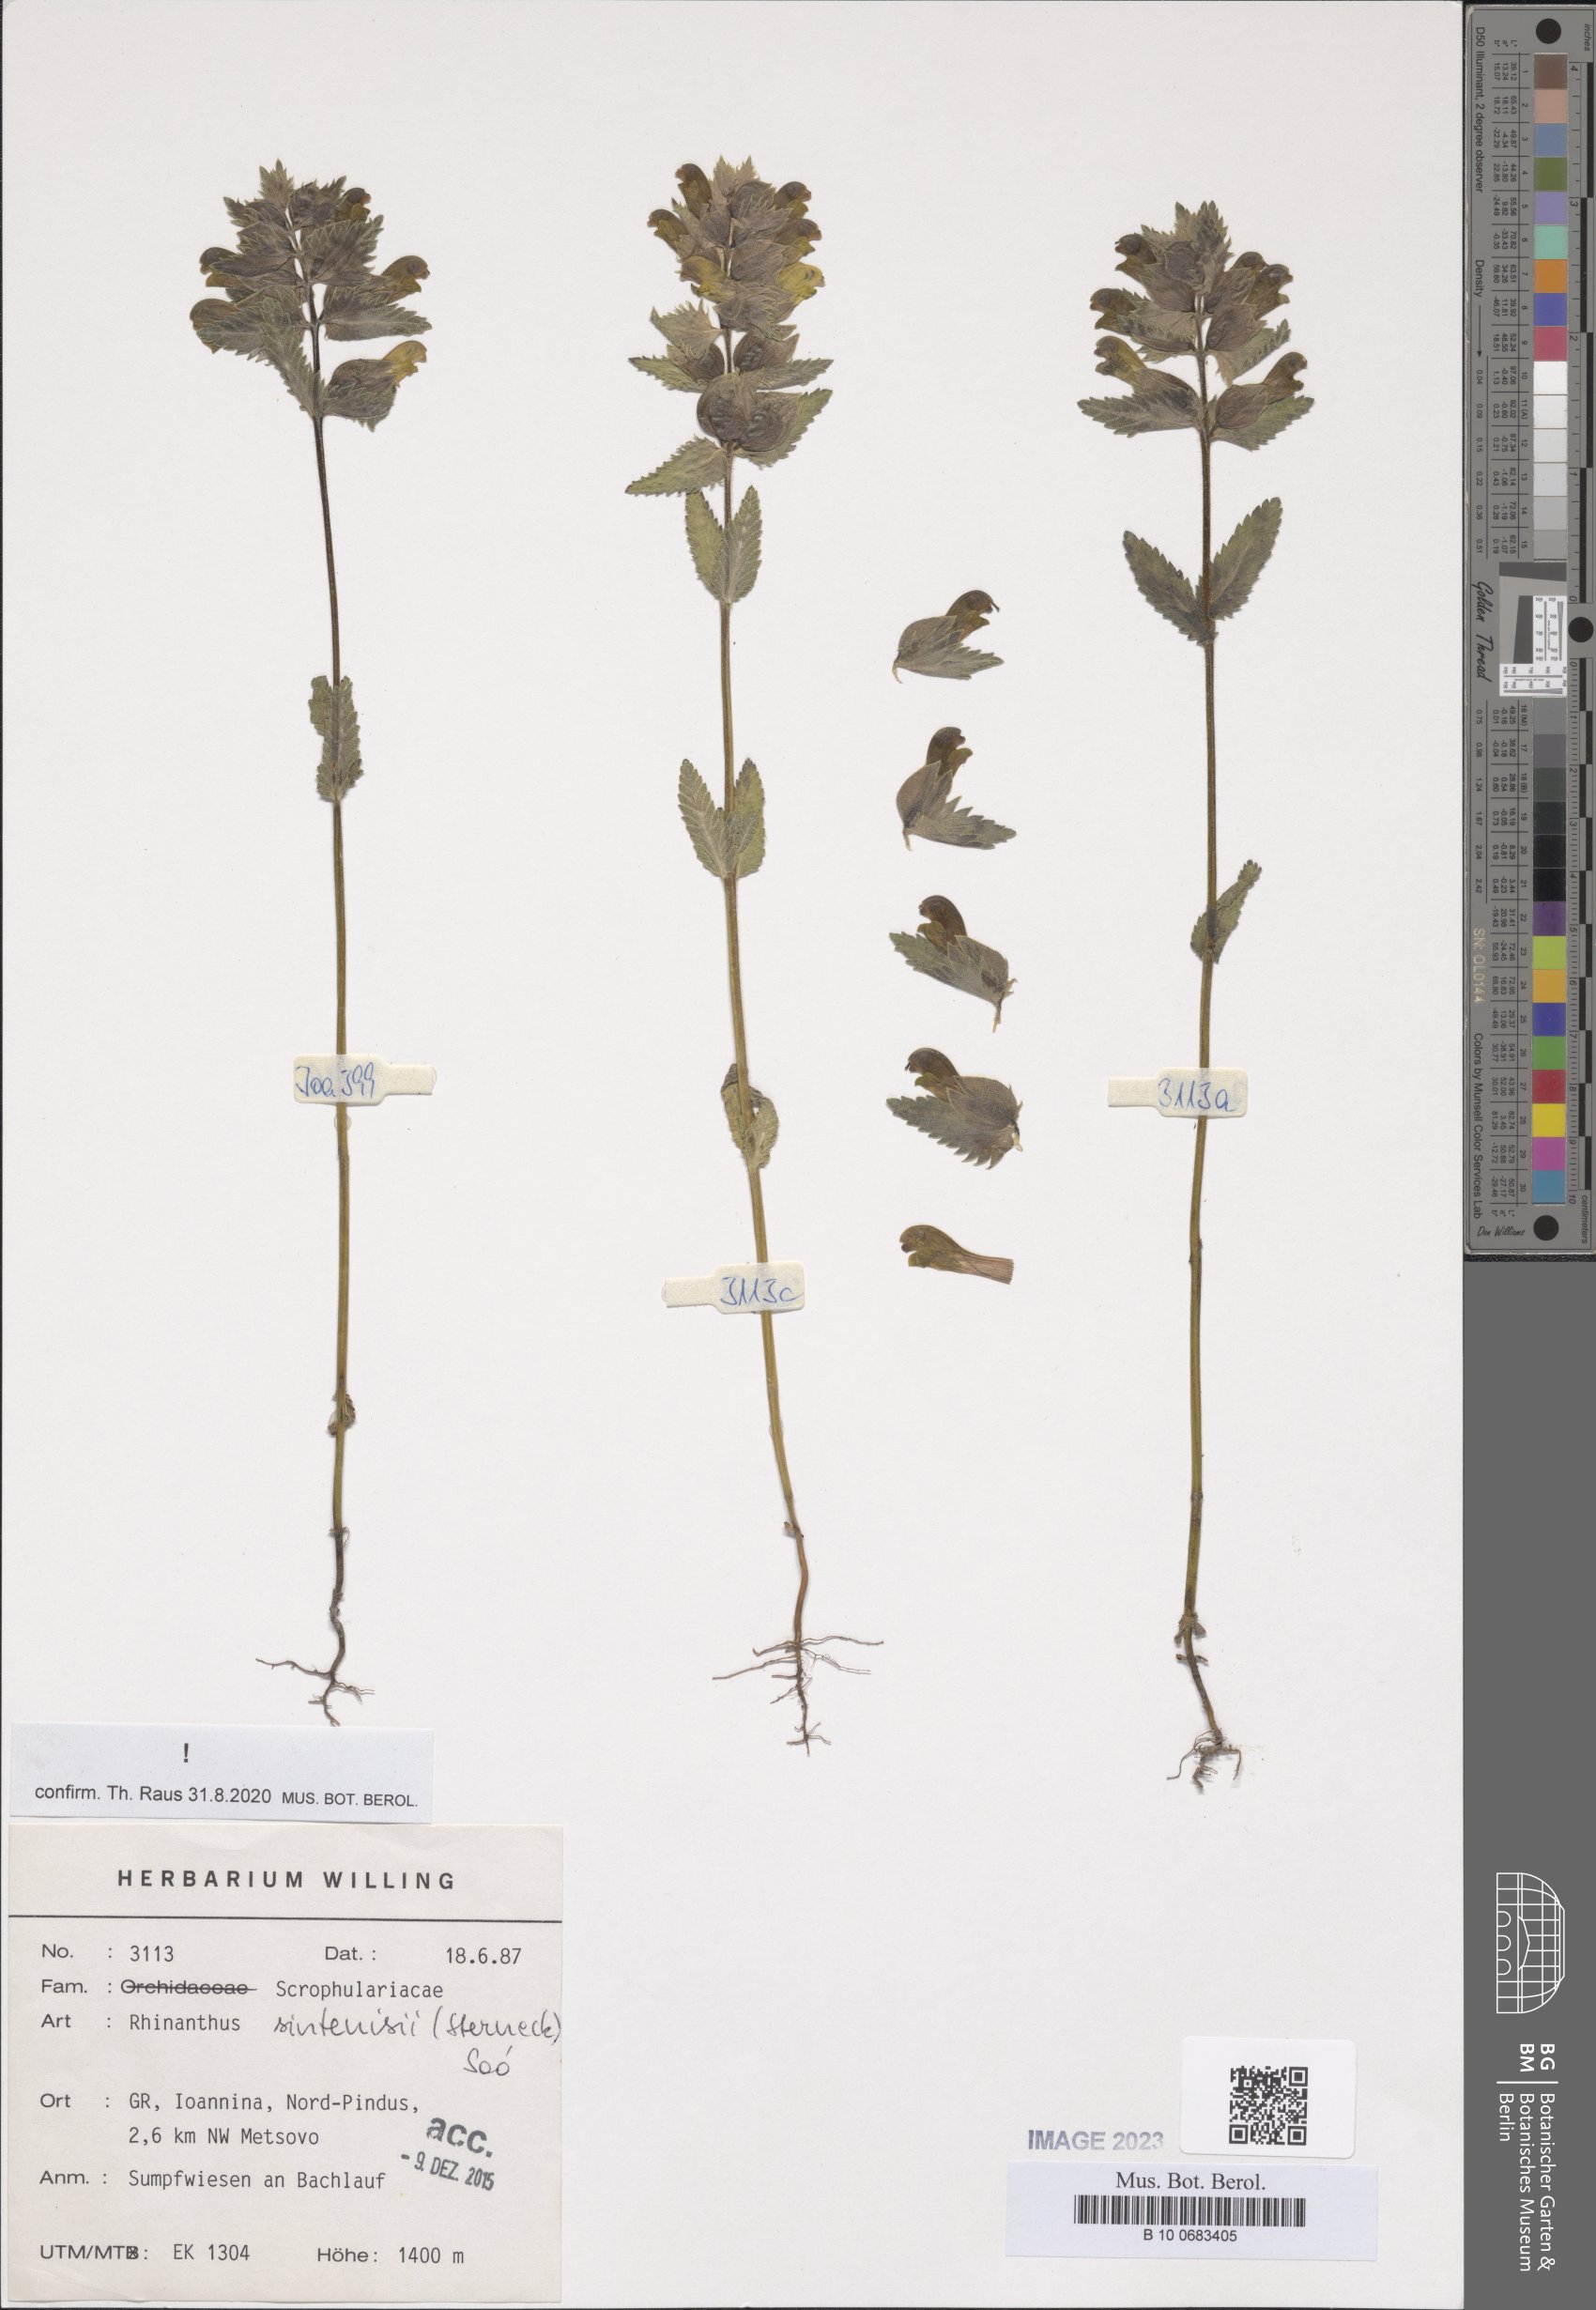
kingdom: Plantae
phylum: Tracheophyta
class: Magnoliopsida
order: Lamiales
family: Orobanchaceae
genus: Rhinanthus
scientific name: Rhinanthus sintenisii
